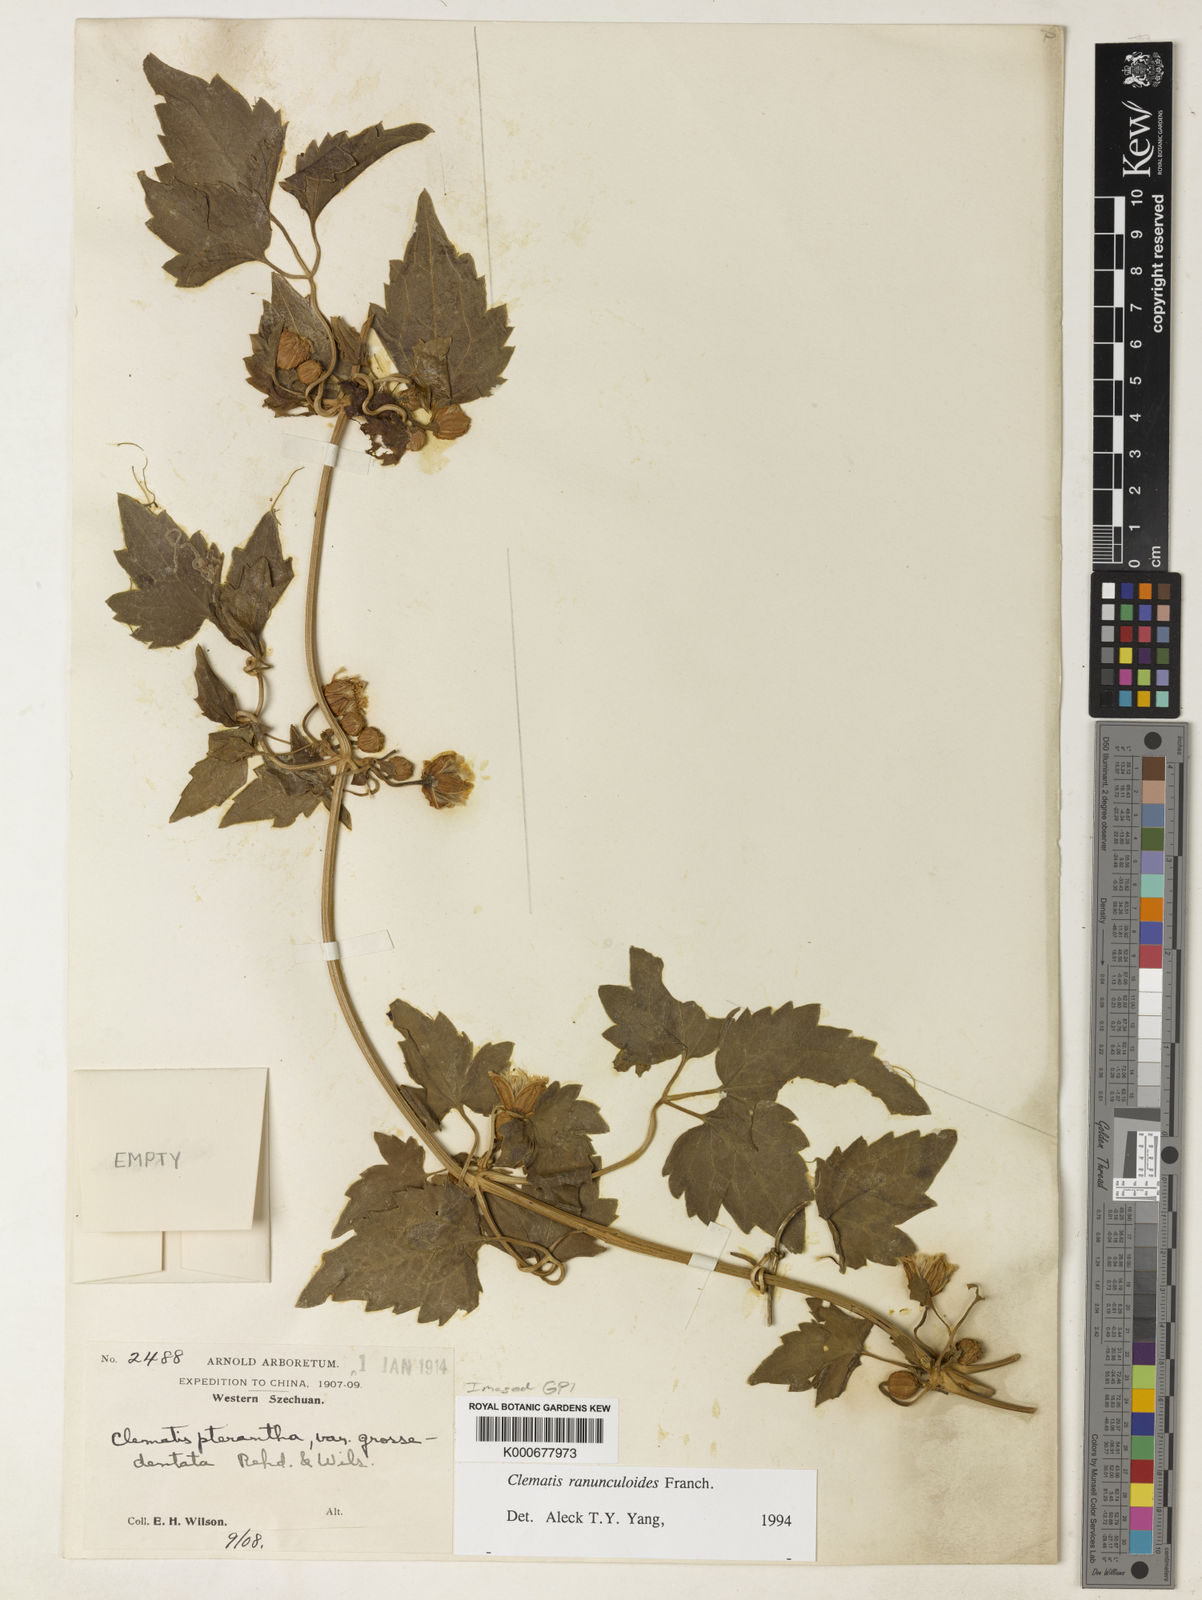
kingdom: Plantae
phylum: Tracheophyta
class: Magnoliopsida
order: Ranunculales
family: Ranunculaceae
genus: Clematis
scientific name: Clematis ranunculoides
